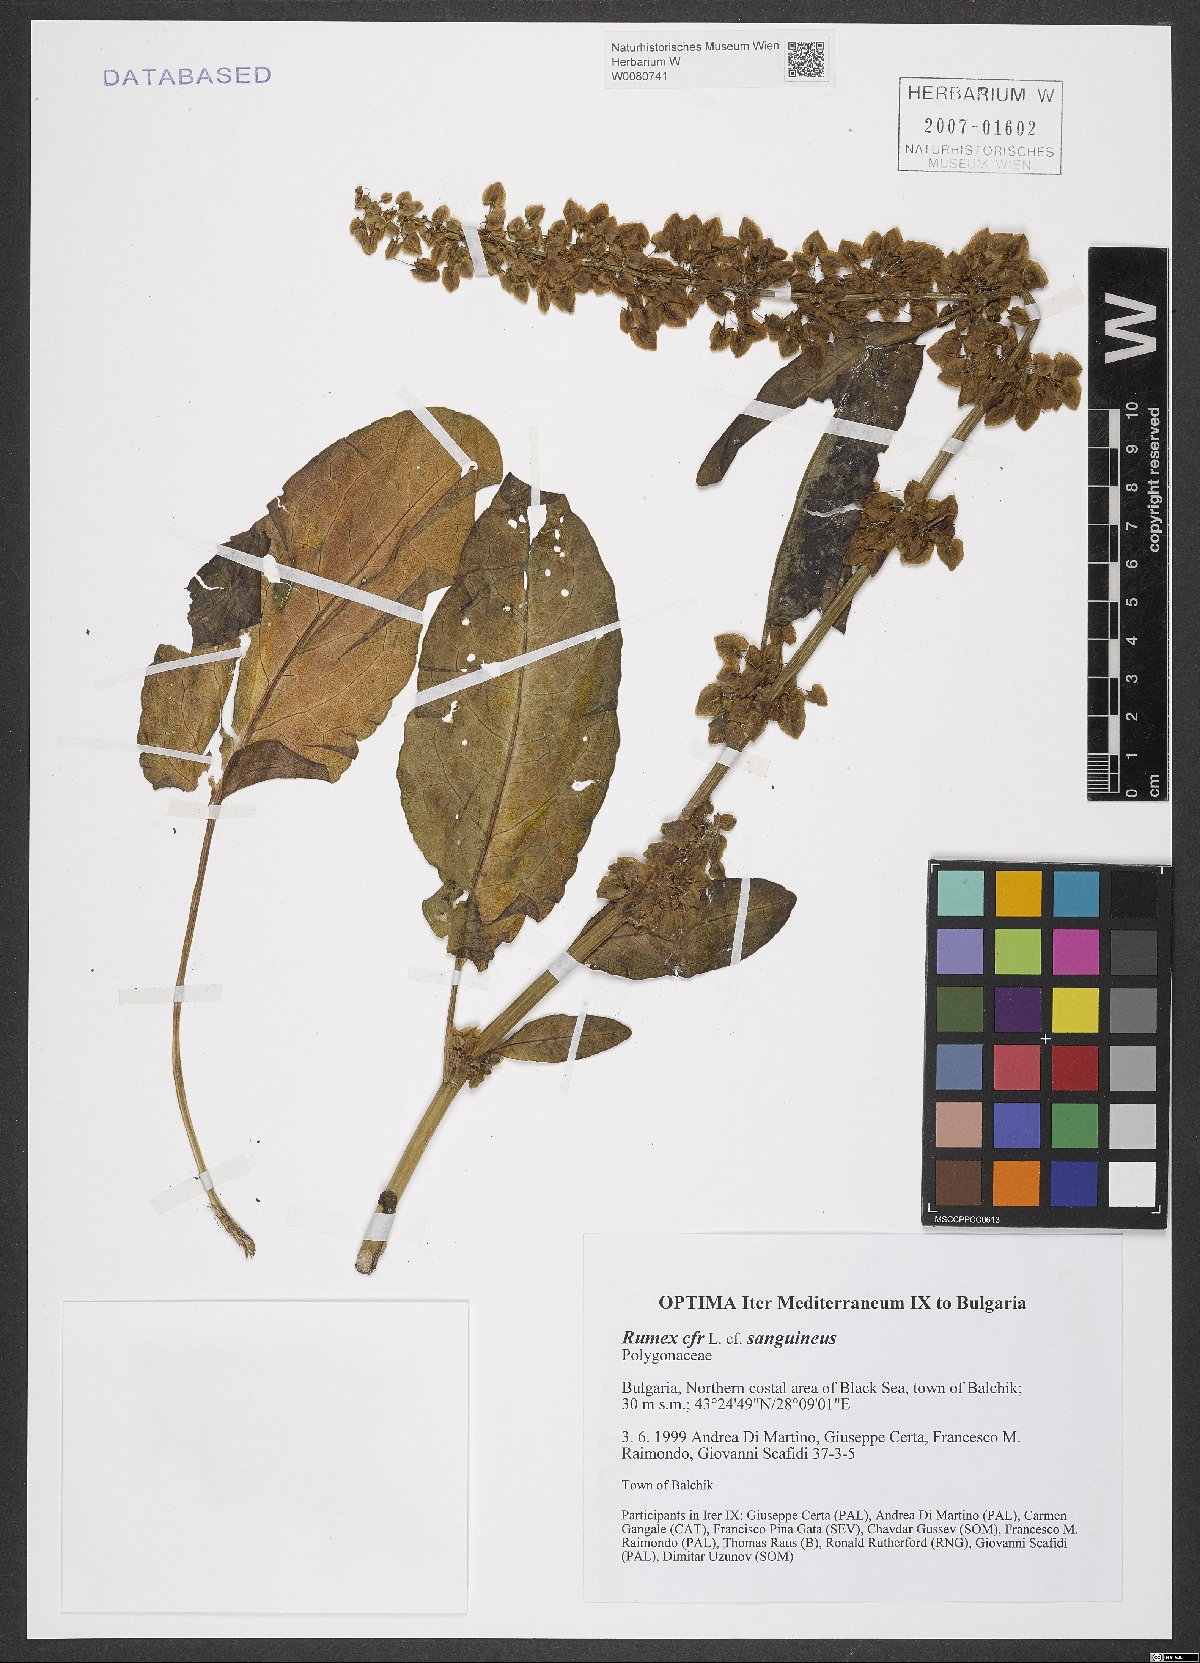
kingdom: Plantae
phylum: Tracheophyta
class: Magnoliopsida
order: Caryophyllales
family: Polygonaceae
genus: Rumex
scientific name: Rumex
